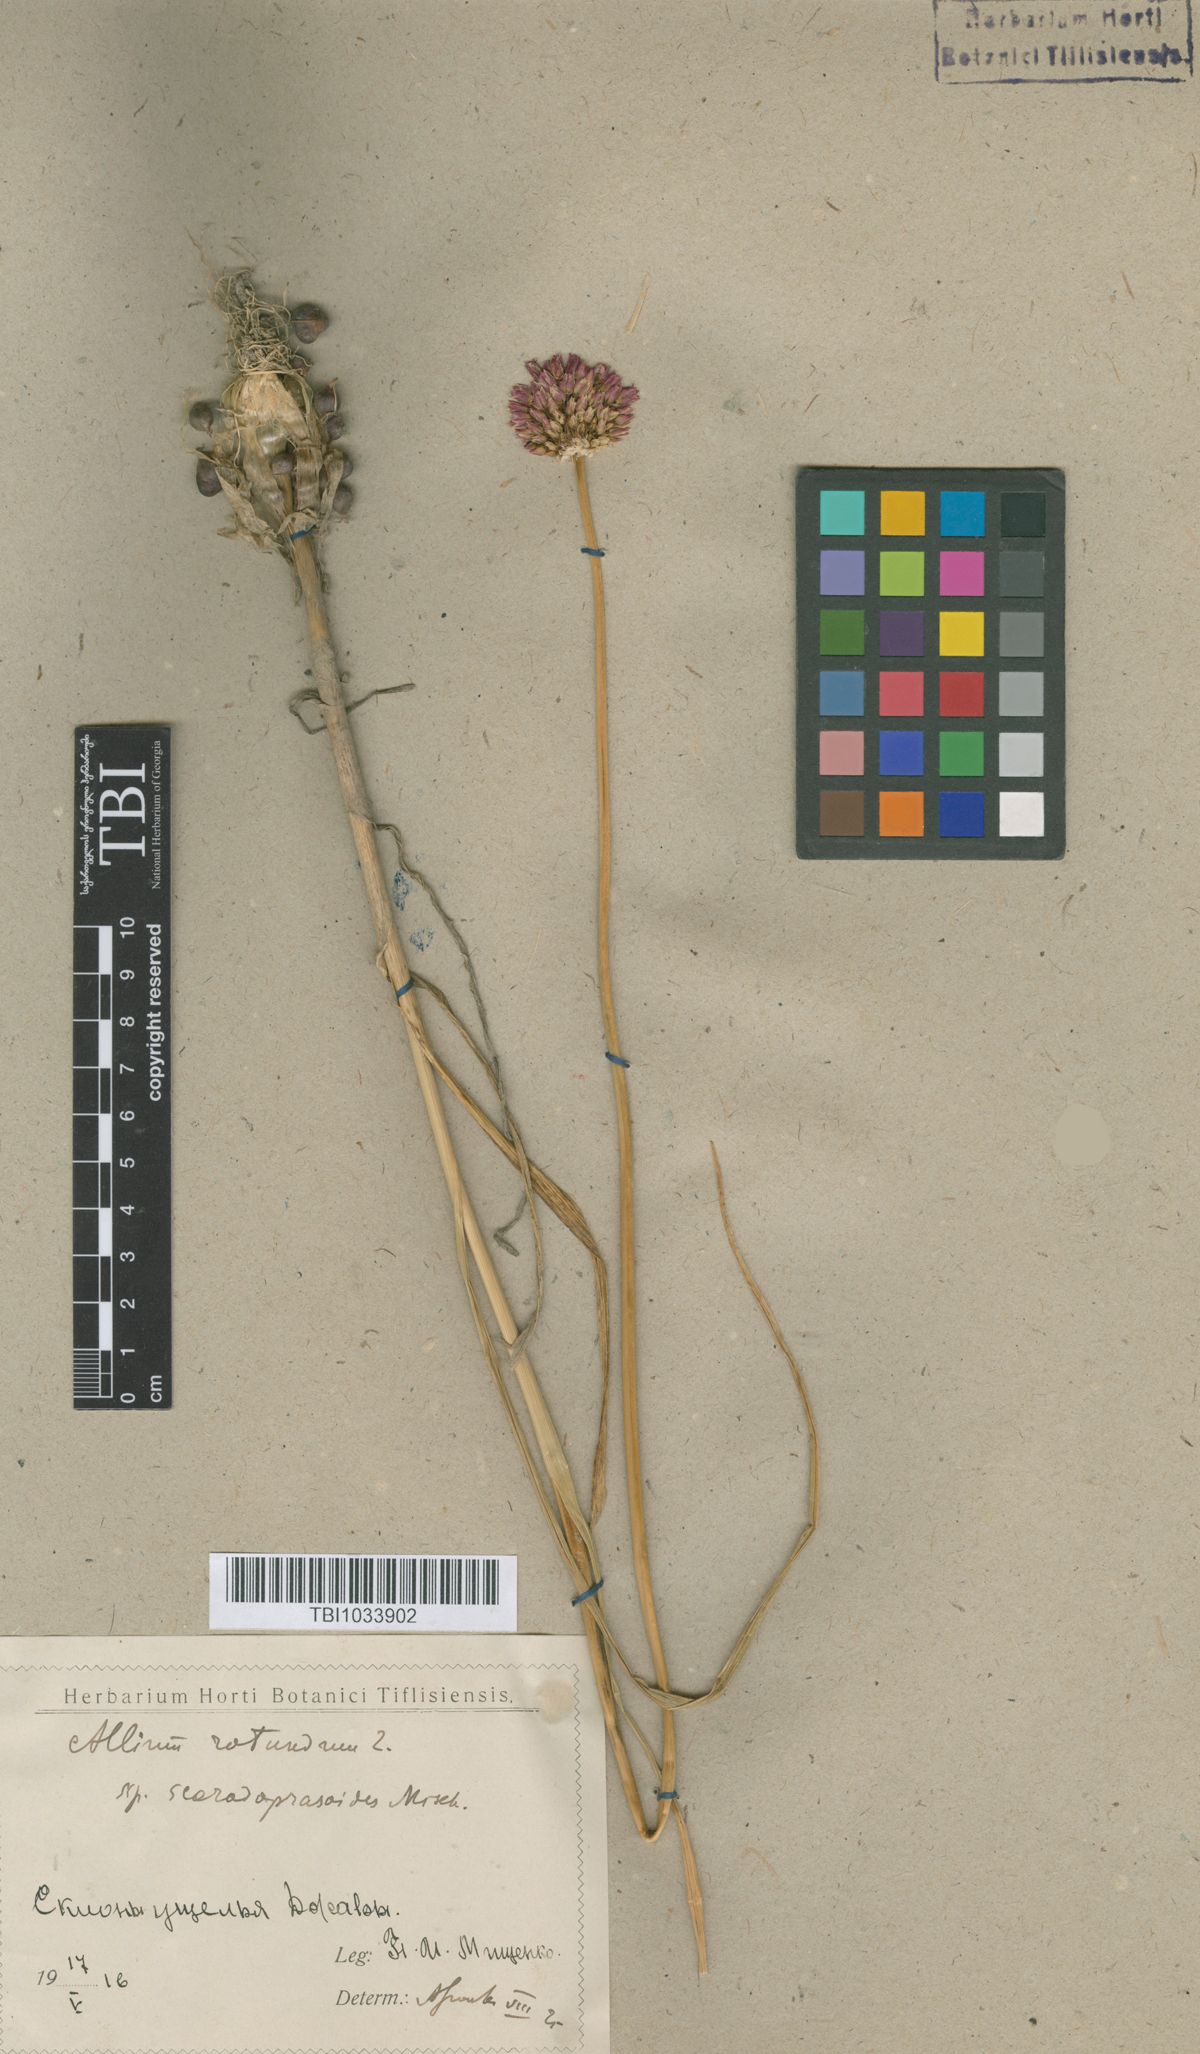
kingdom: Plantae
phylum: Tracheophyta
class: Liliopsida
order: Asparagales
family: Amaryllidaceae
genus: Allium
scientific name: Allium rotundum
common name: Sand leek
